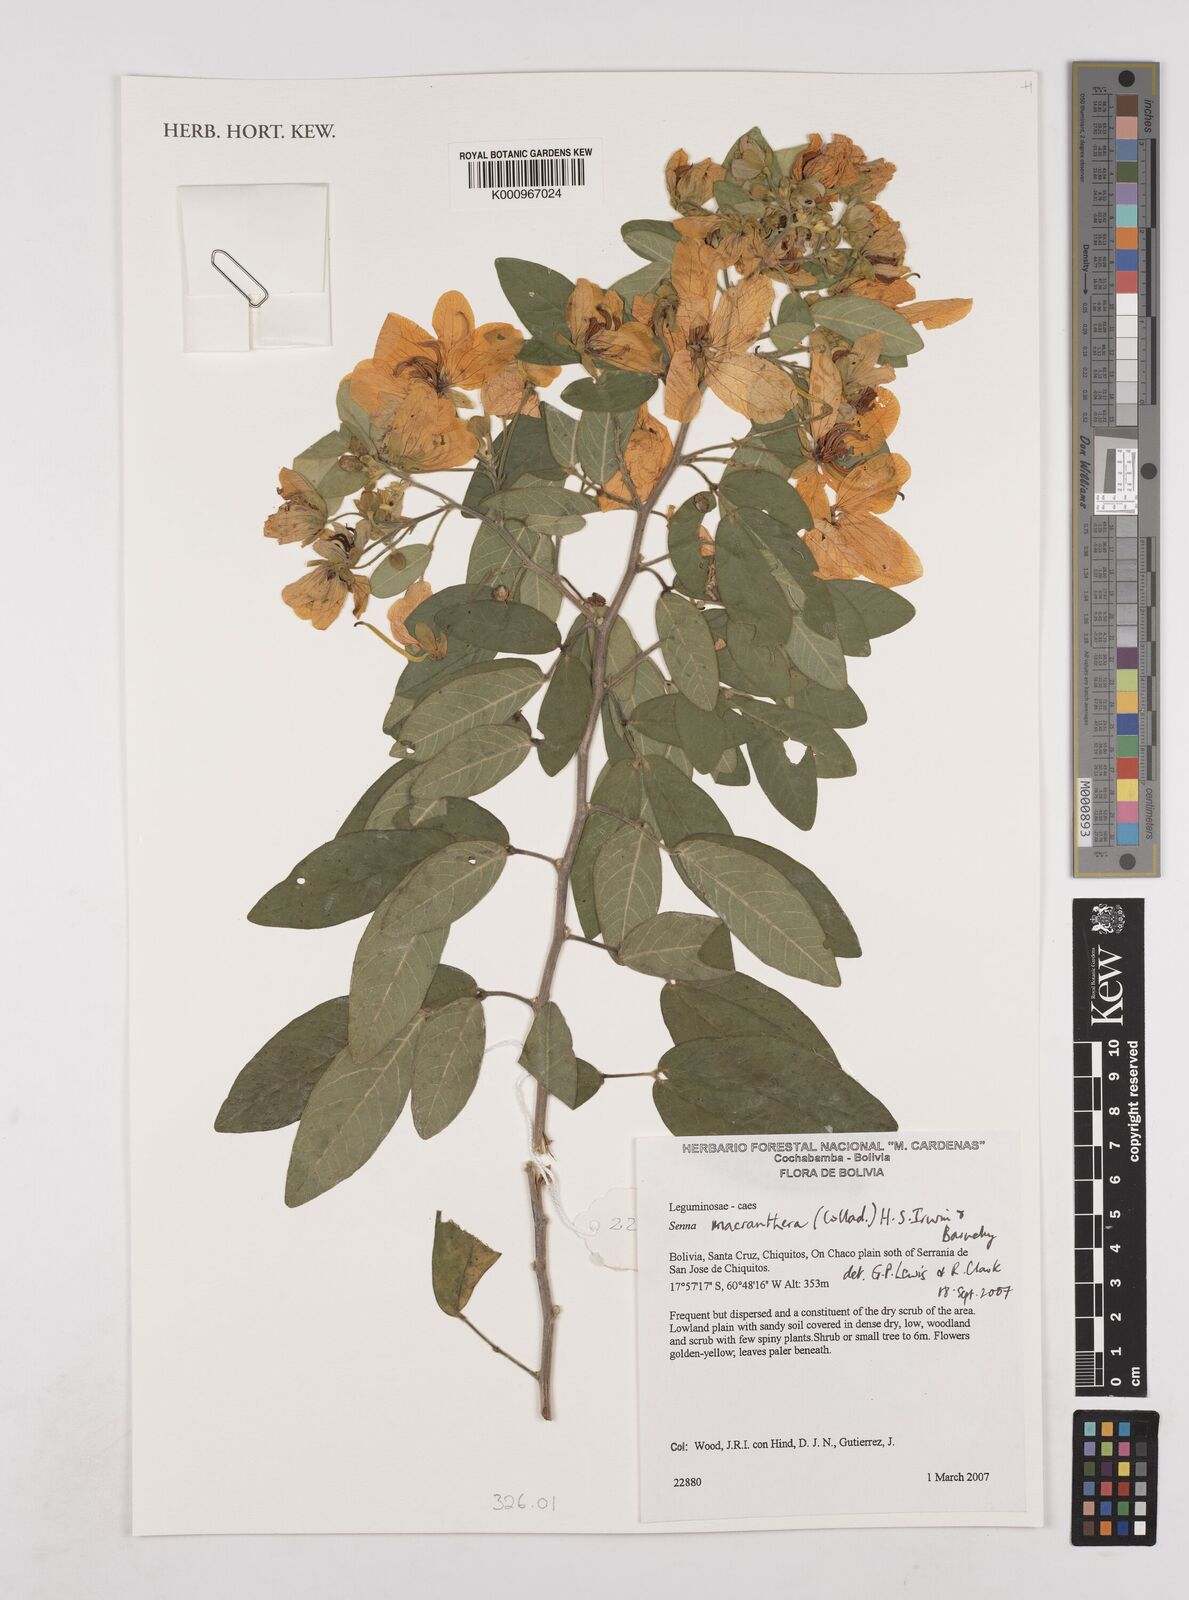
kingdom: Plantae
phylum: Tracheophyta
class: Magnoliopsida
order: Fabales
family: Fabaceae
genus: Senna
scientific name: Senna macranthera
